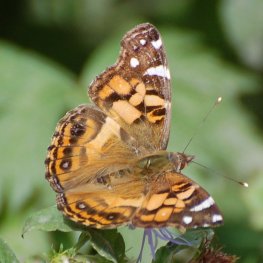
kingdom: Animalia
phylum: Arthropoda
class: Insecta
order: Lepidoptera
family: Nymphalidae
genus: Vanessa
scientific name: Vanessa virginiensis
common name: American Lady
